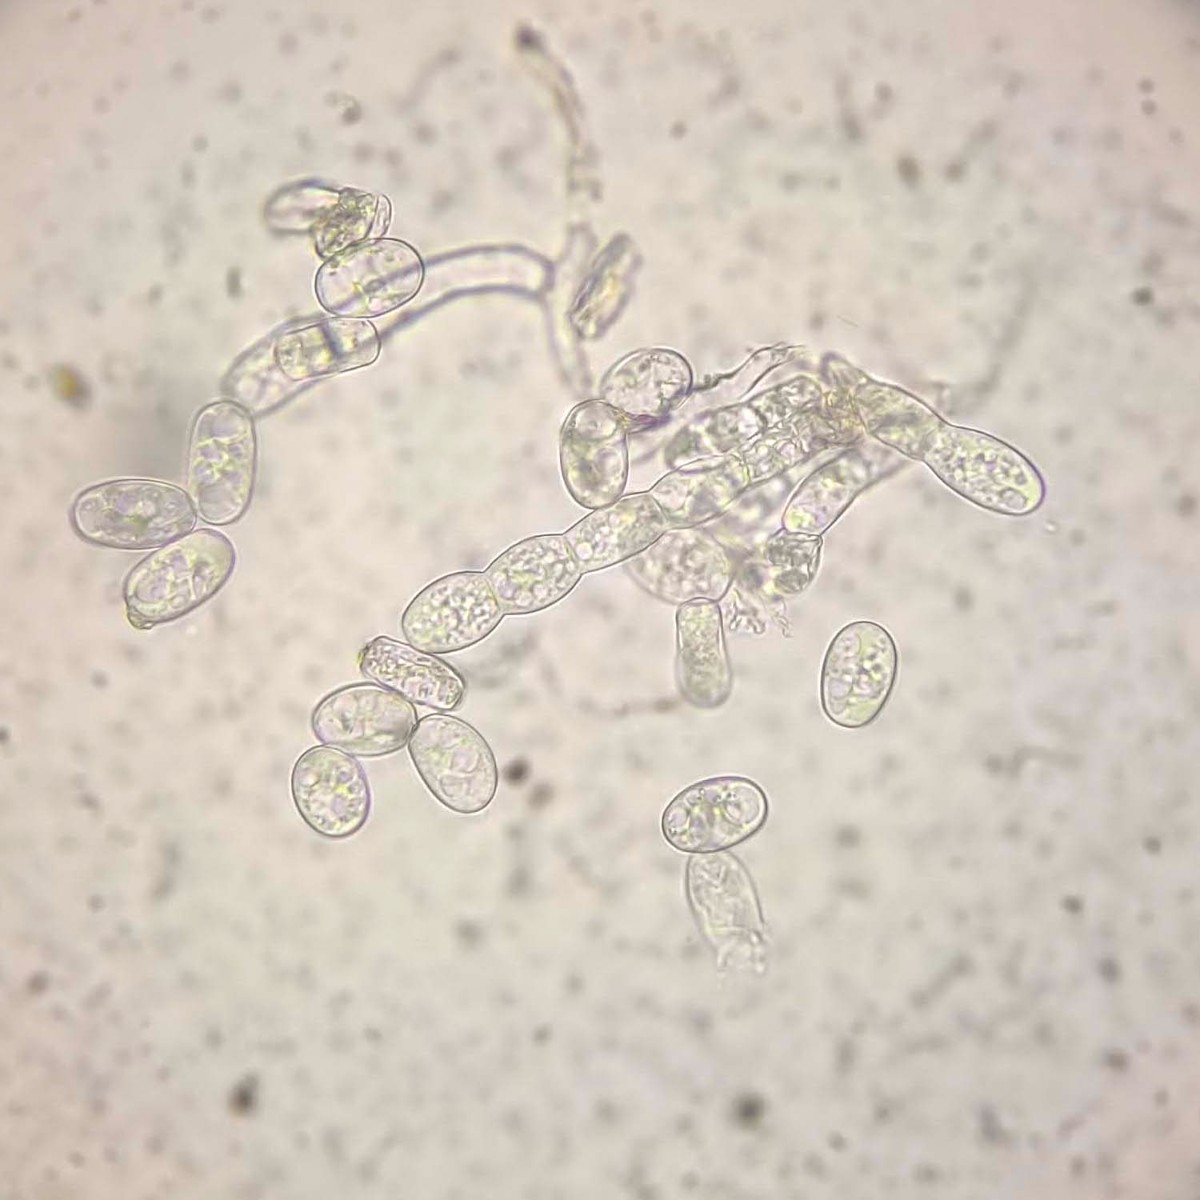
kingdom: Fungi
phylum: Ascomycota
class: Leotiomycetes
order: Helotiales
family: Erysiphaceae
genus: Golovinomyces
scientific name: Golovinomyces orontii
